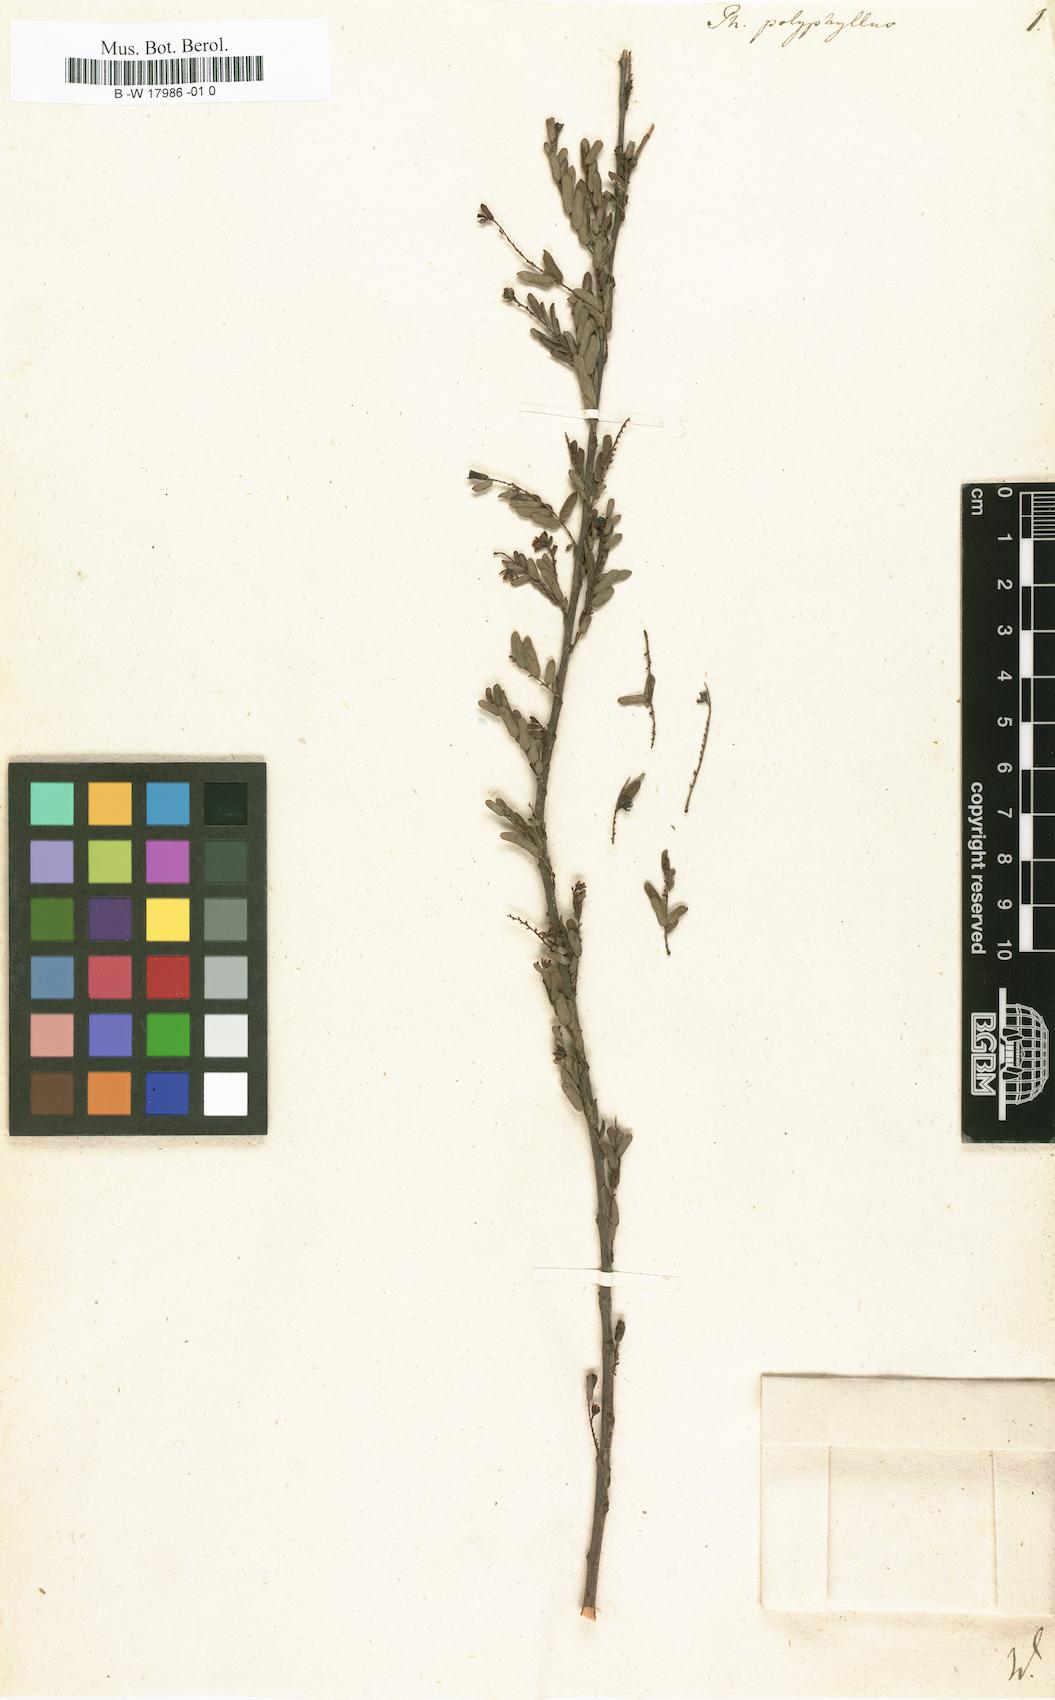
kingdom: Plantae
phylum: Tracheophyta
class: Magnoliopsida
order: Malpighiales
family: Phyllanthaceae
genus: Phyllanthus
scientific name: Phyllanthus polyphyllus
